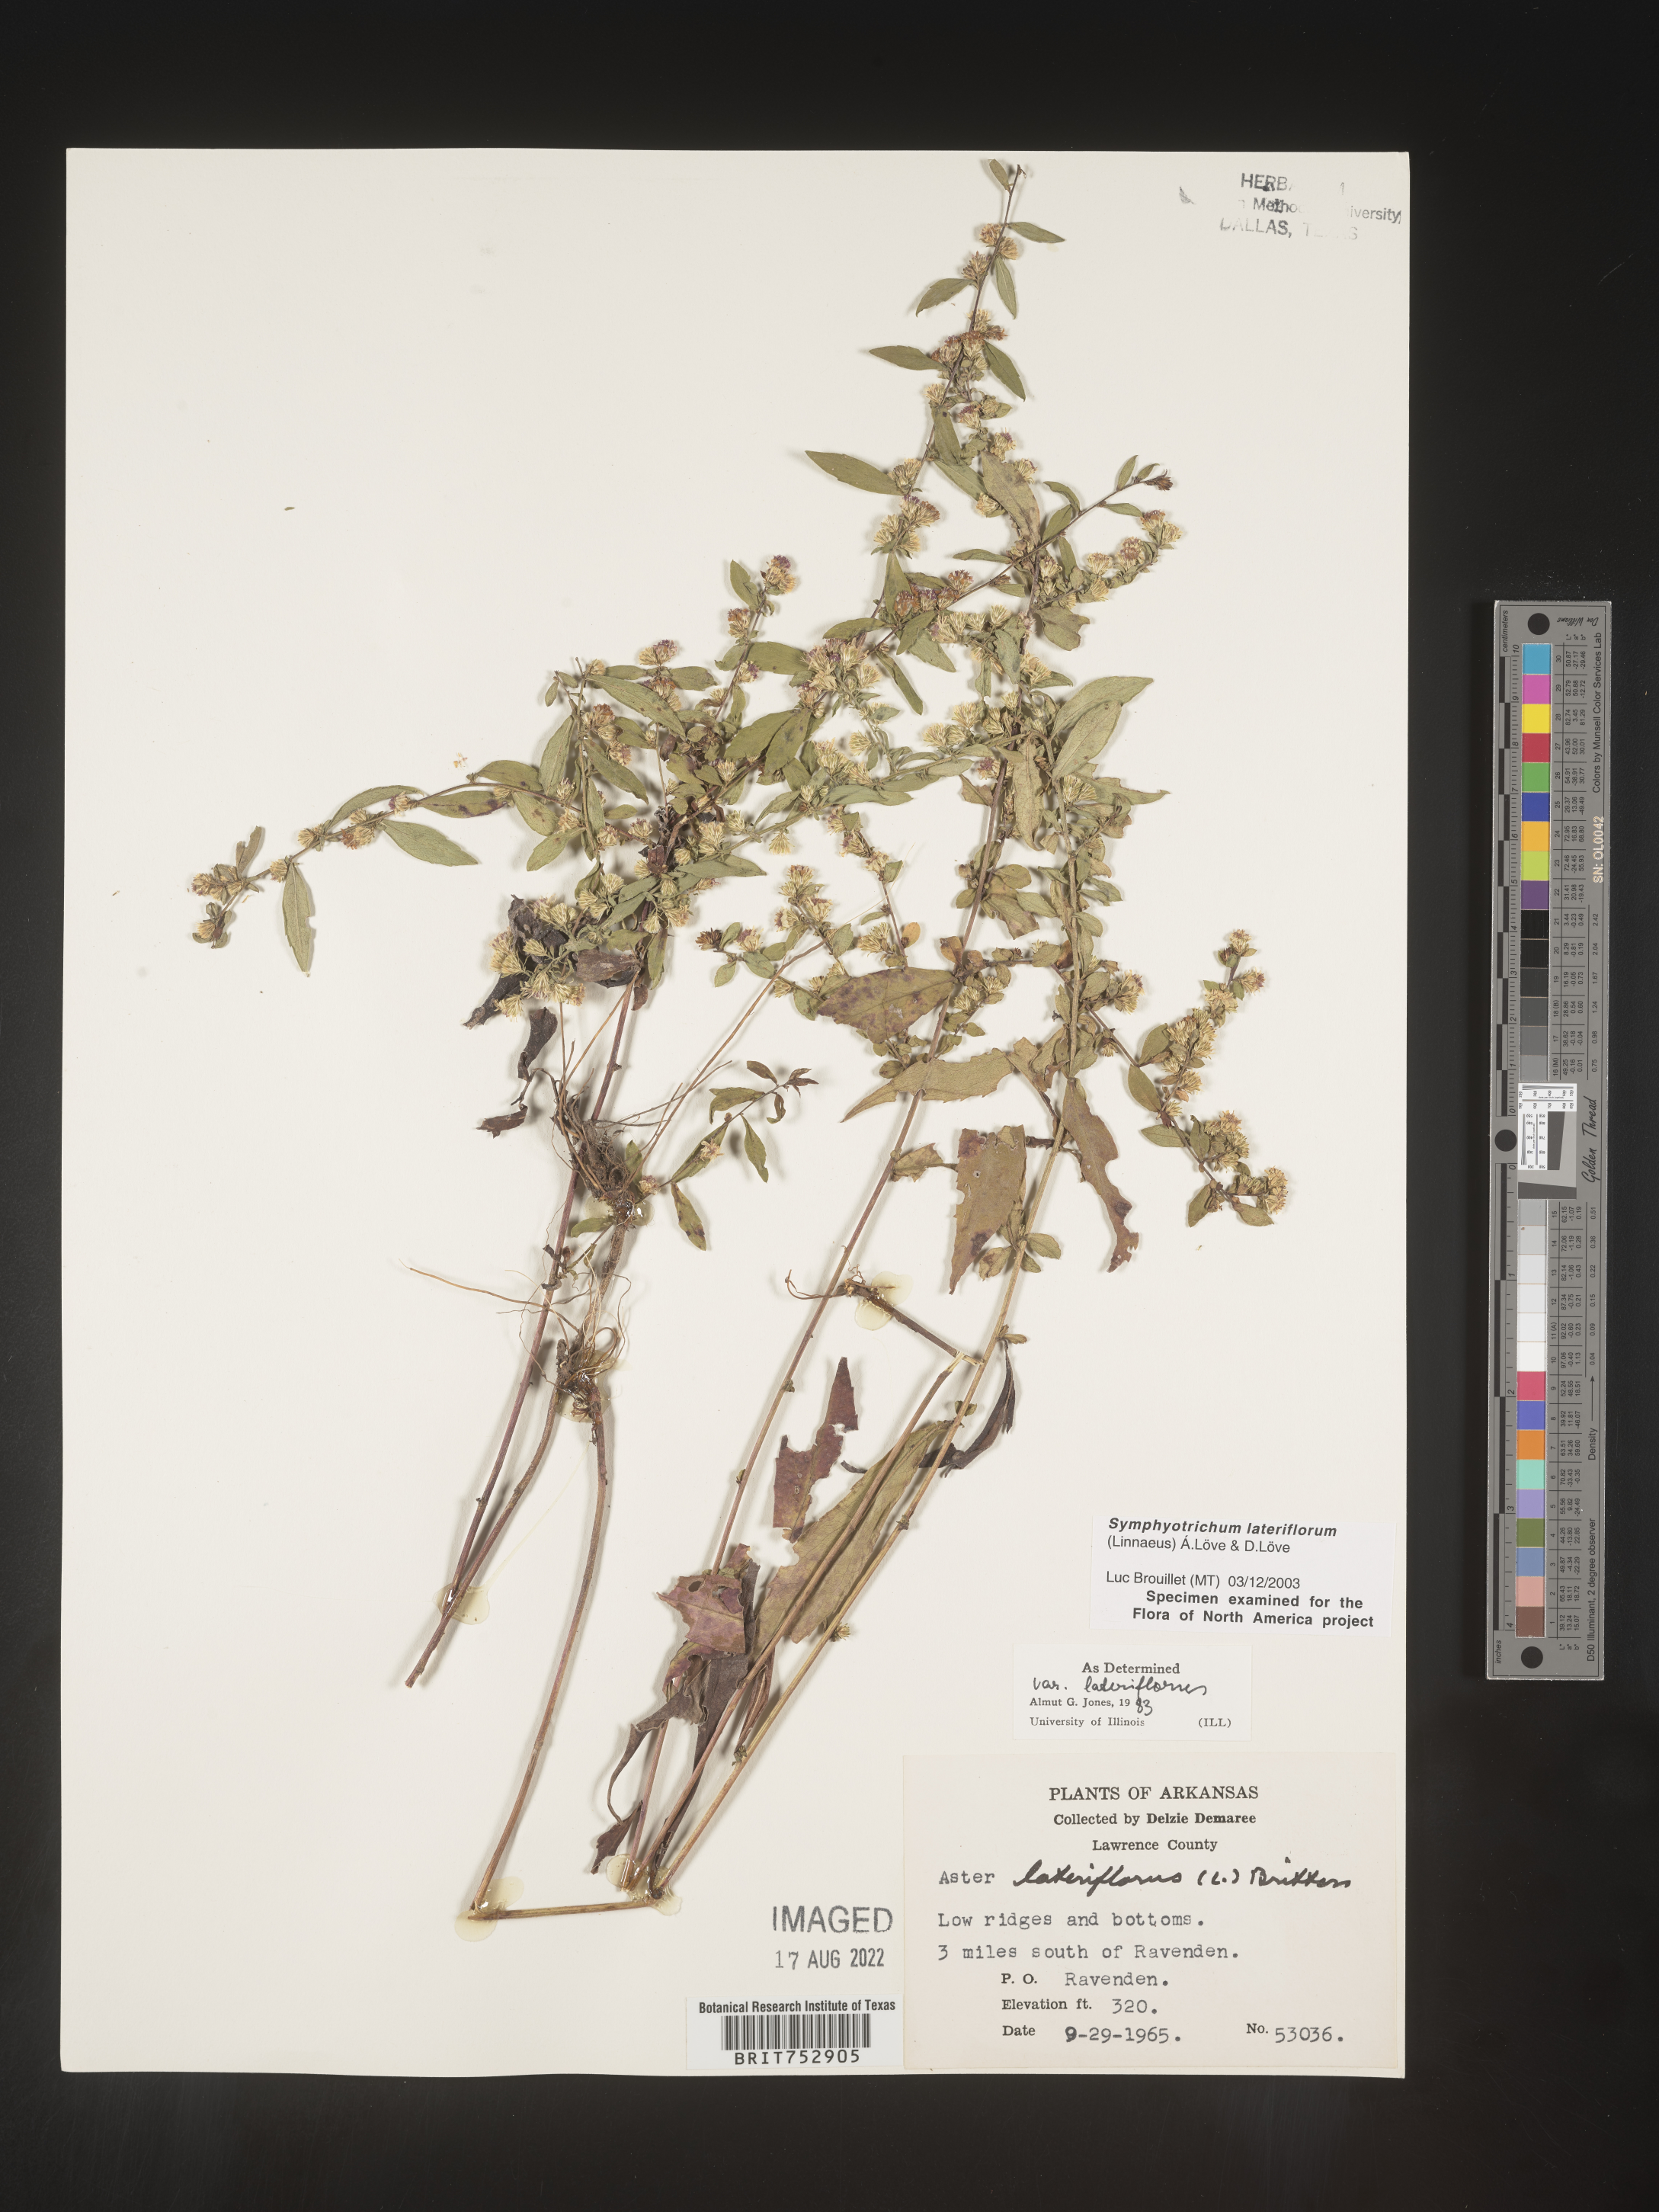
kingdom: Plantae
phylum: Tracheophyta
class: Magnoliopsida
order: Asterales
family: Asteraceae
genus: Symphyotrichum
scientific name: Symphyotrichum lateriflorum
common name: Calico aster
